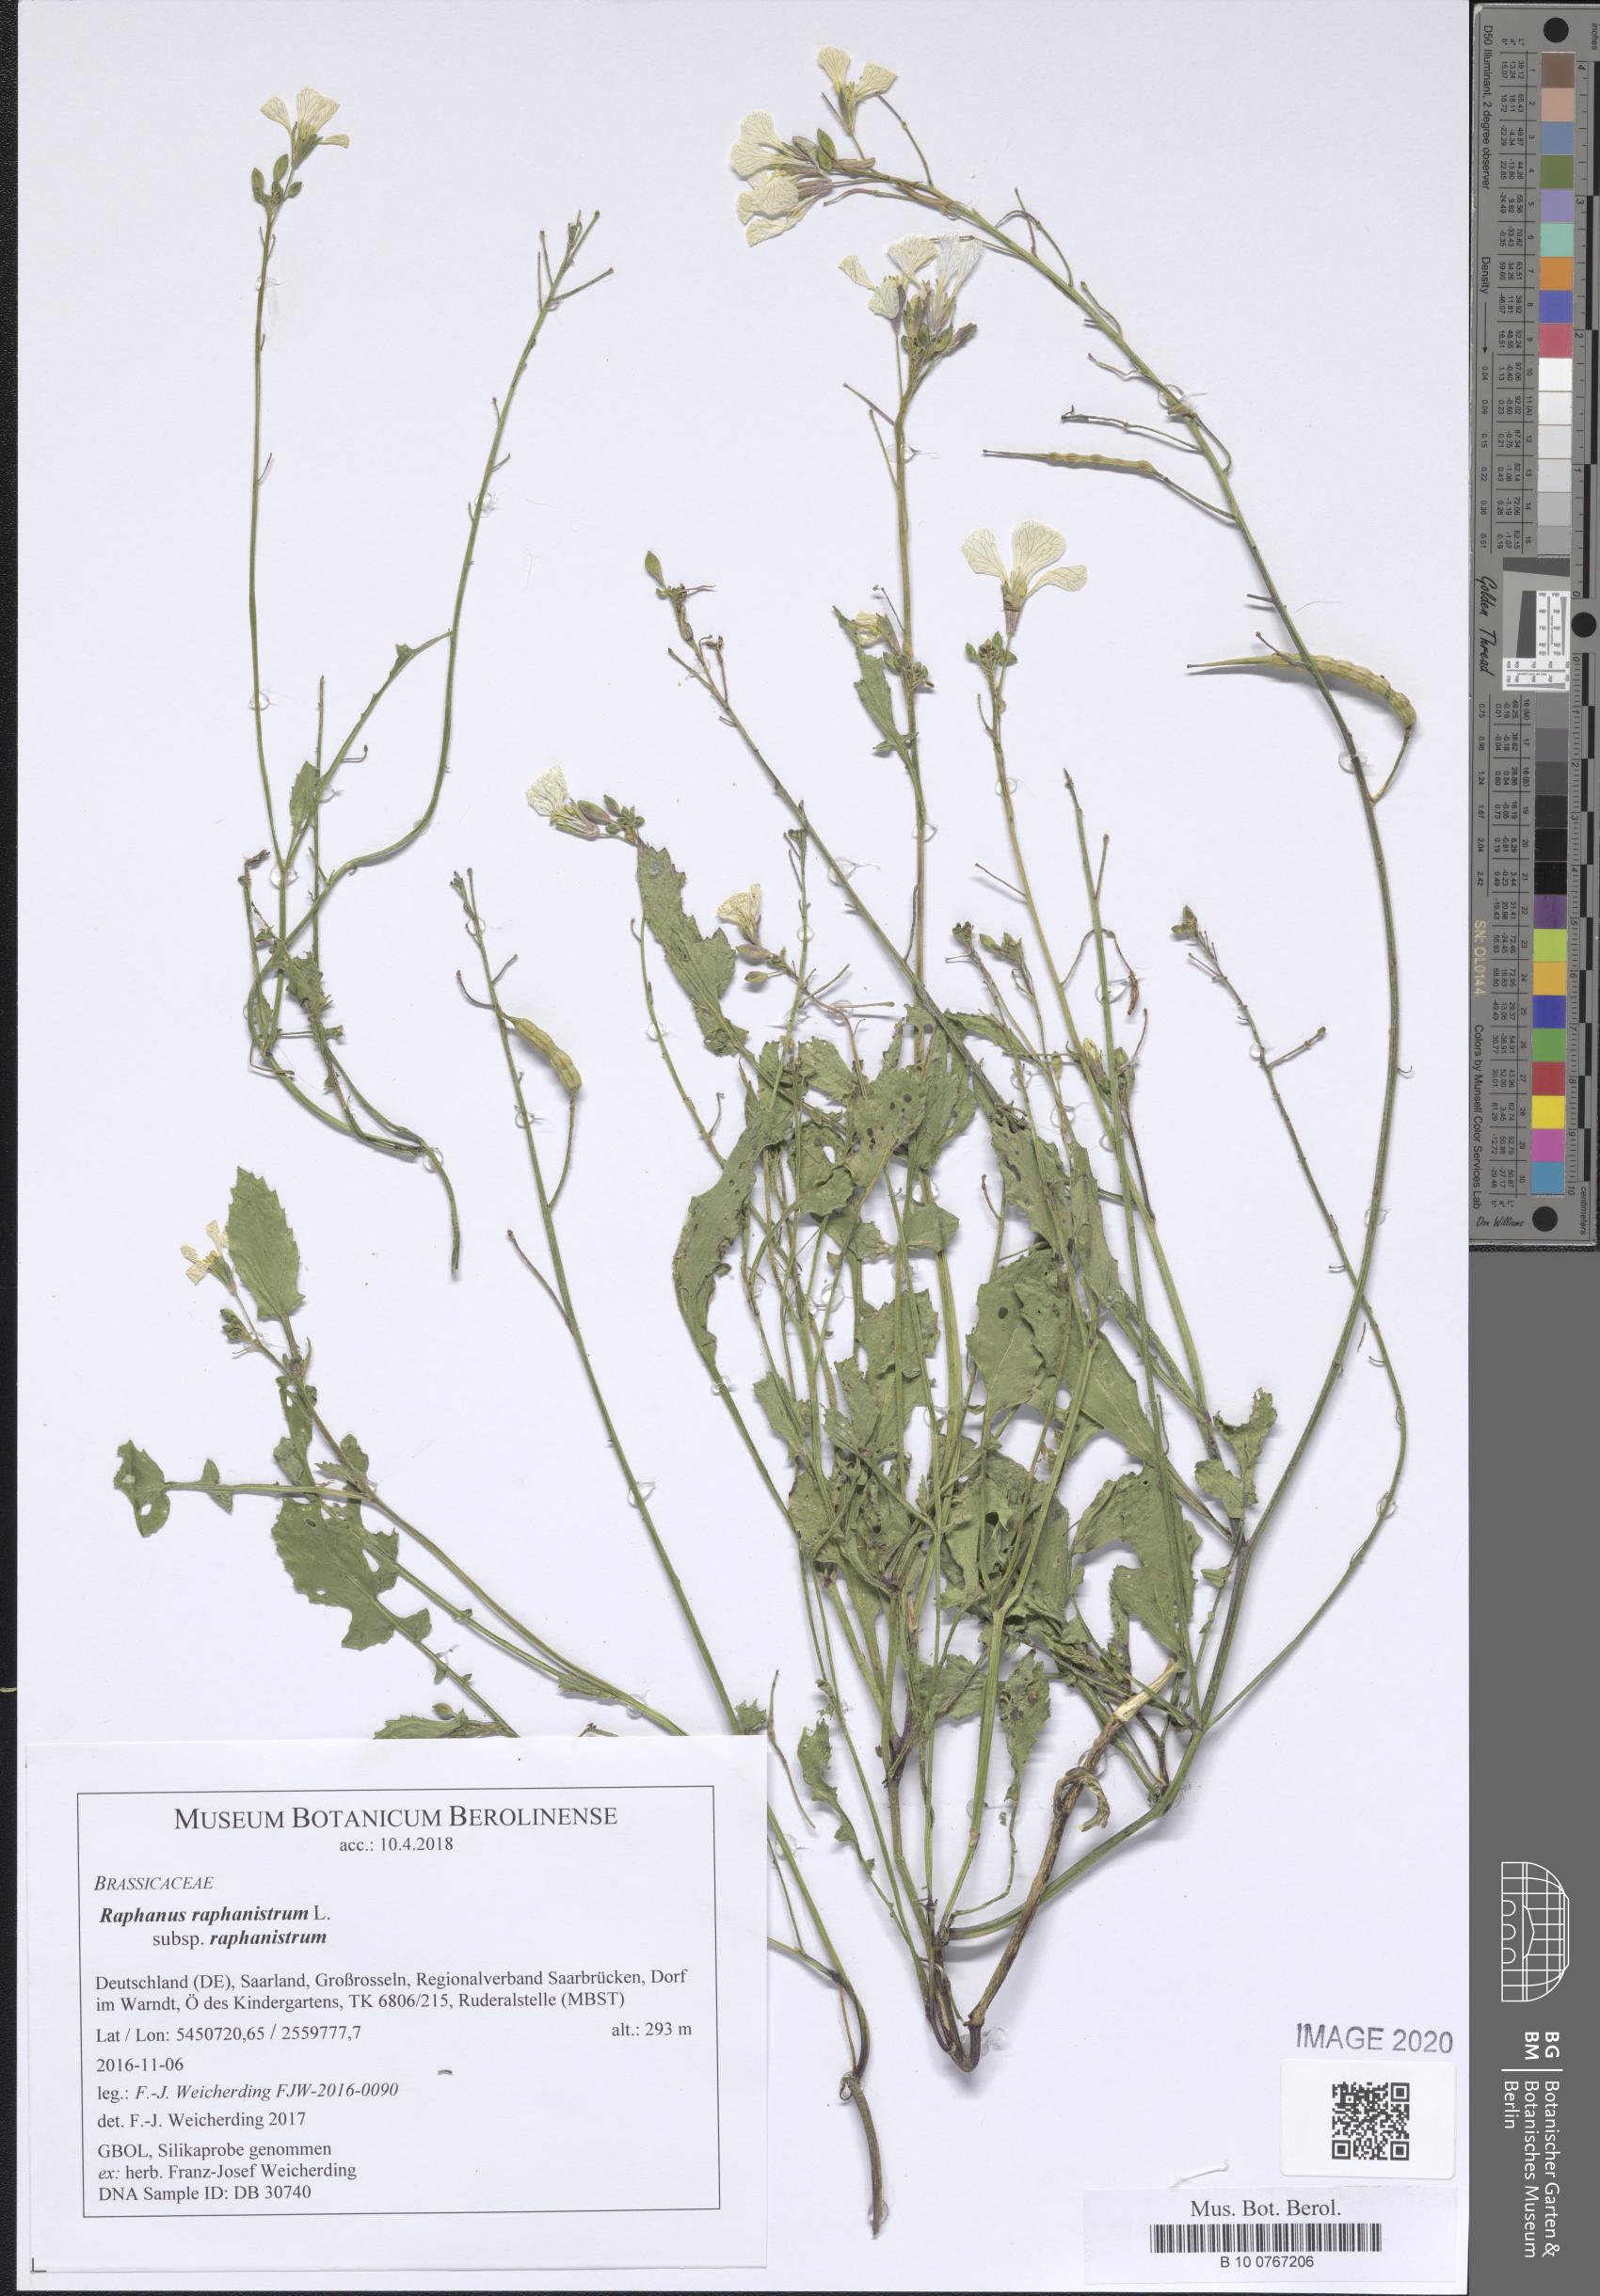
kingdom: Plantae
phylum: Tracheophyta
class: Magnoliopsida
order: Brassicales
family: Brassicaceae
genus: Raphanus
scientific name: Raphanus raphanistrum
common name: Wild radish
